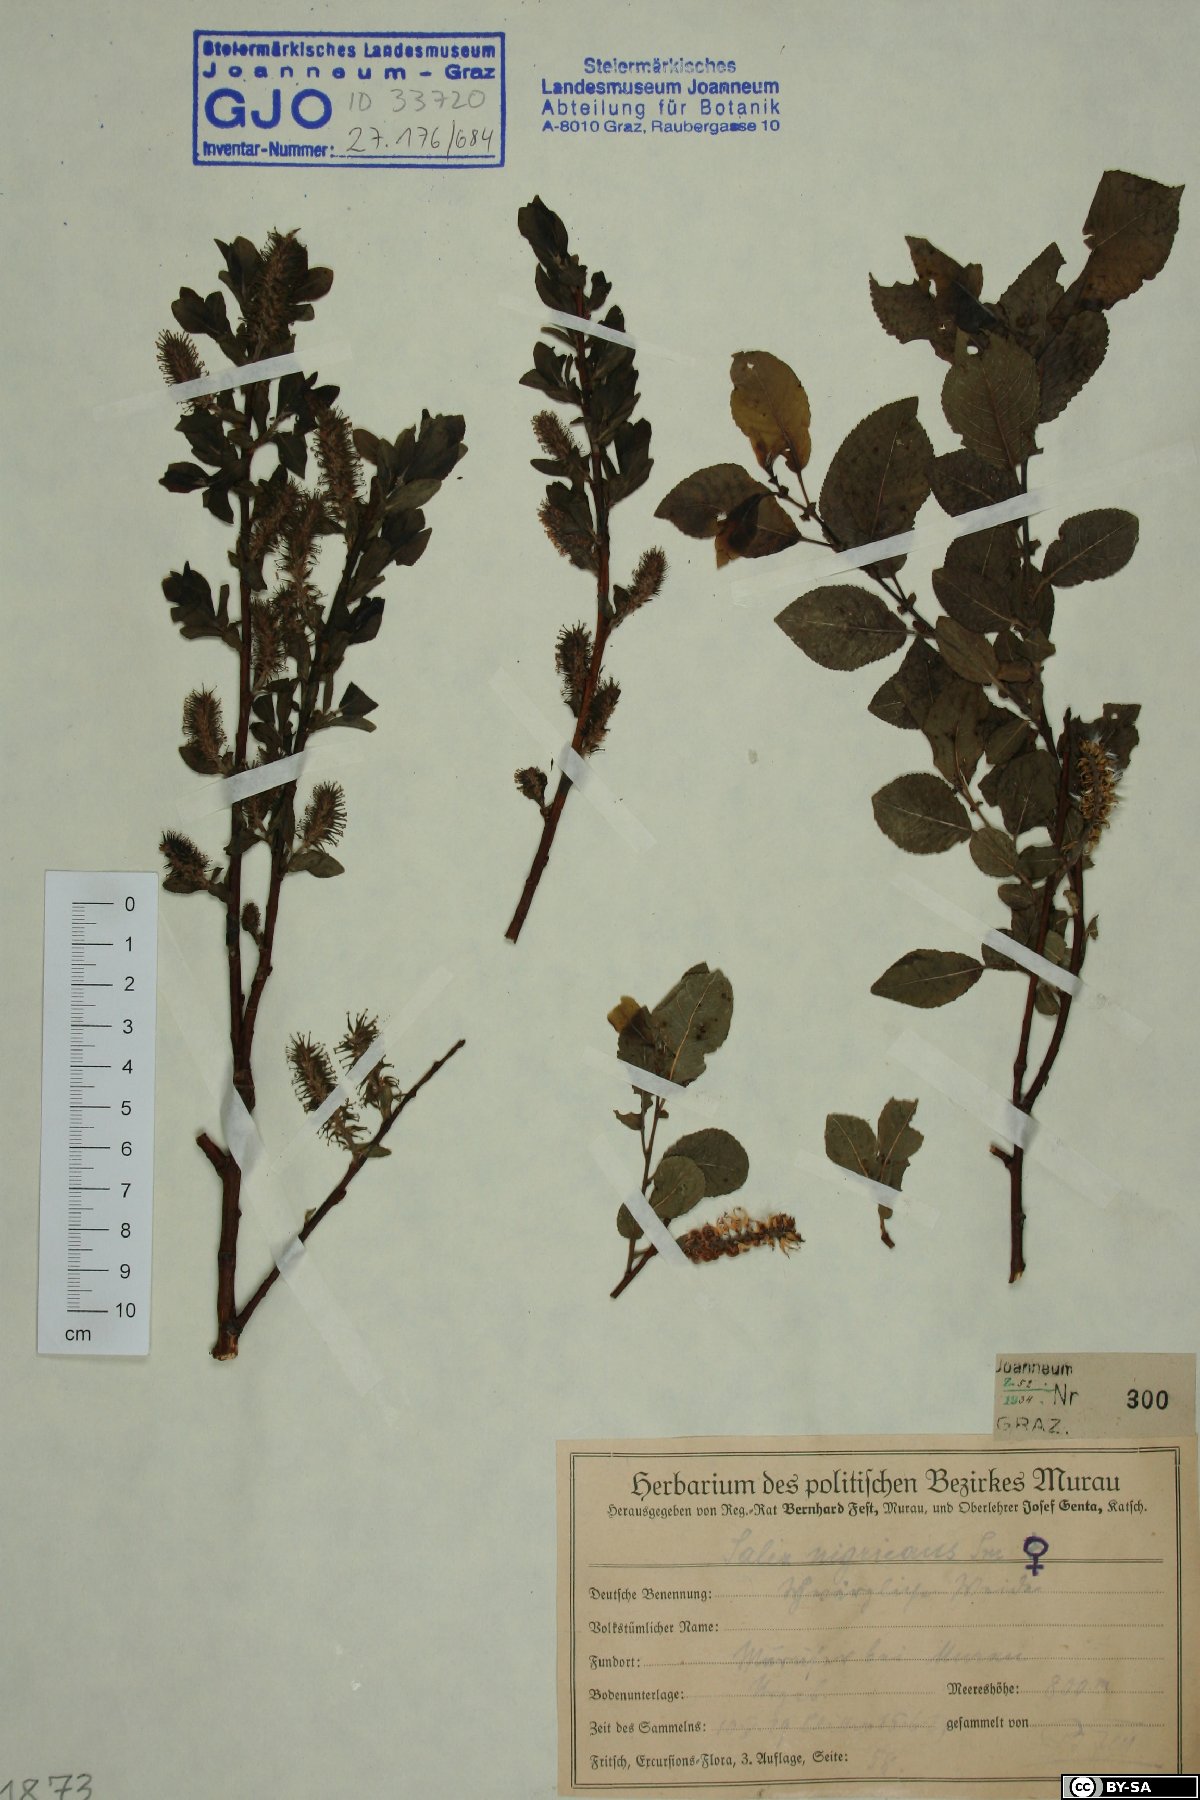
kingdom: Plantae
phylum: Tracheophyta
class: Magnoliopsida
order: Malpighiales
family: Salicaceae
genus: Salix
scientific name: Salix myrsinifolia
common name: Dark-leaved willow
